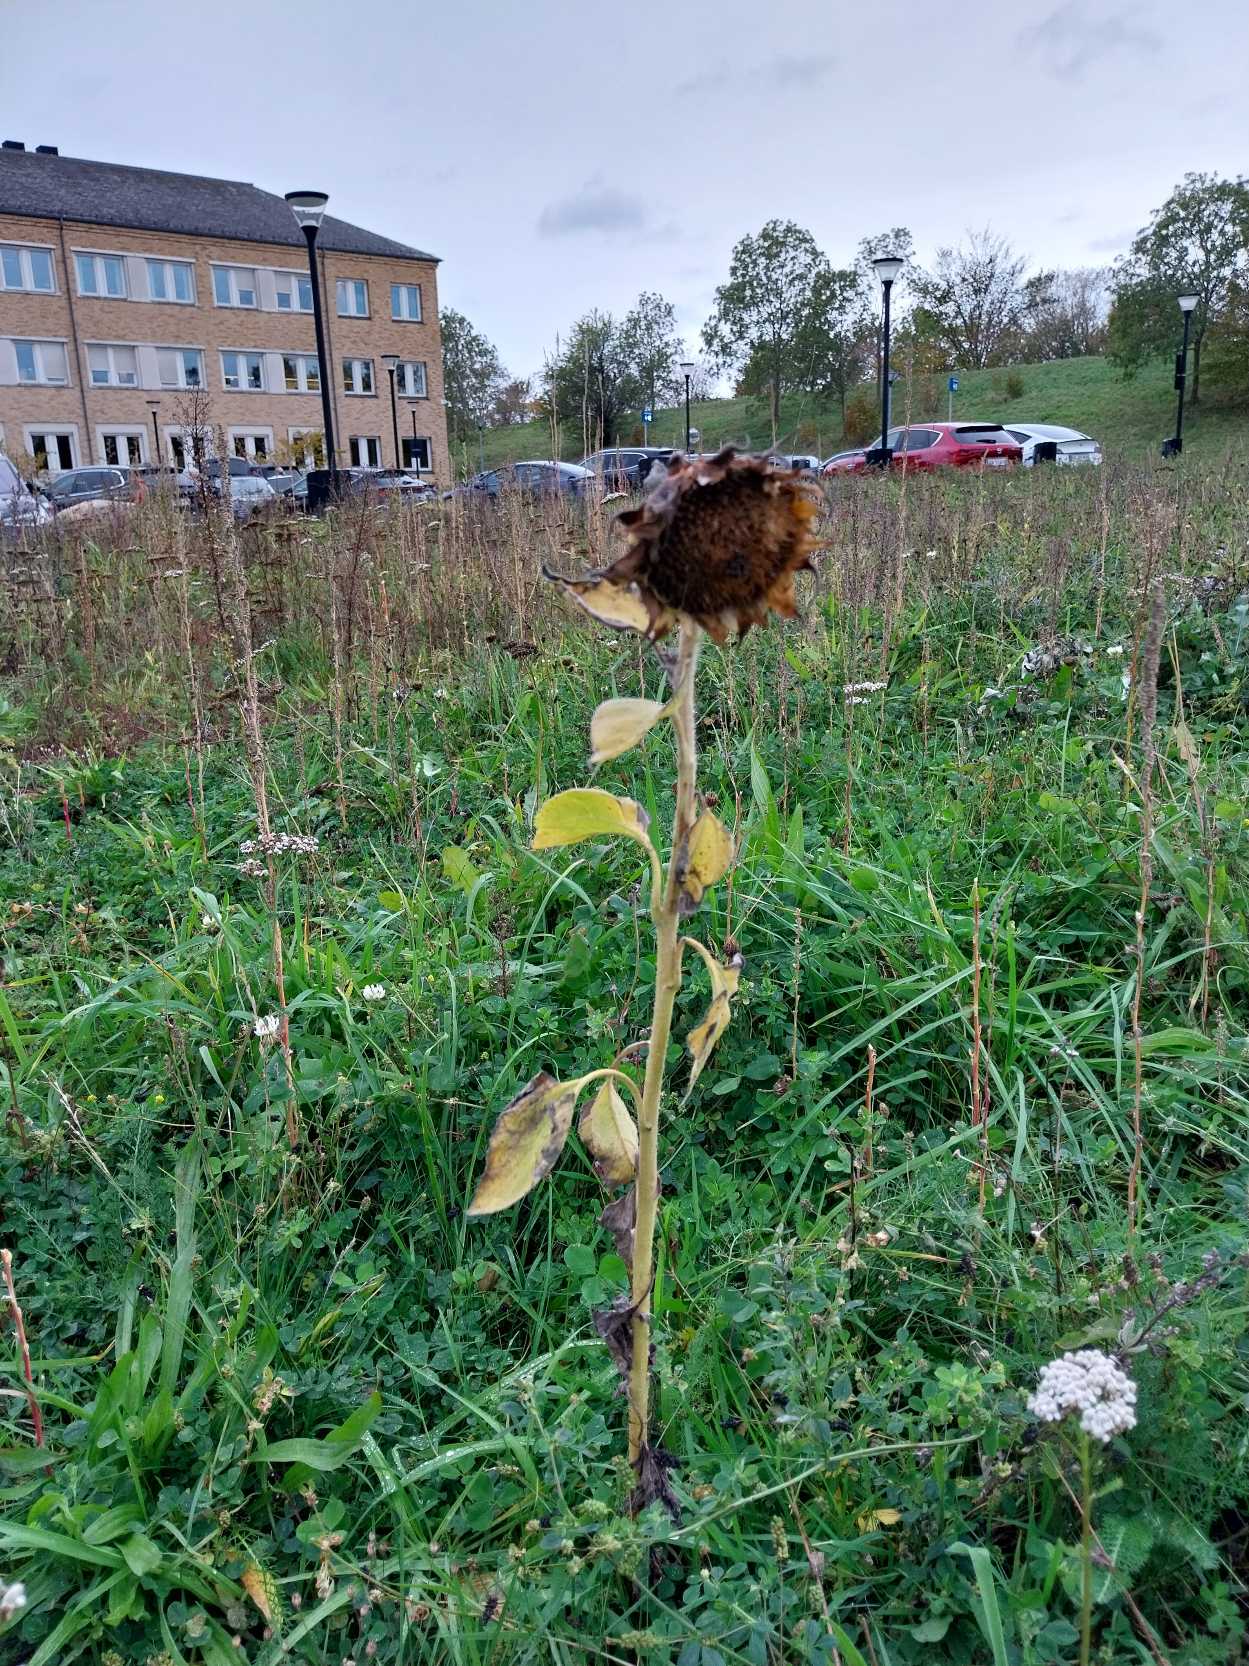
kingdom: Plantae
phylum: Tracheophyta
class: Magnoliopsida
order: Asterales
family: Asteraceae
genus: Helianthus
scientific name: Helianthus annuus
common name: Solsikke
